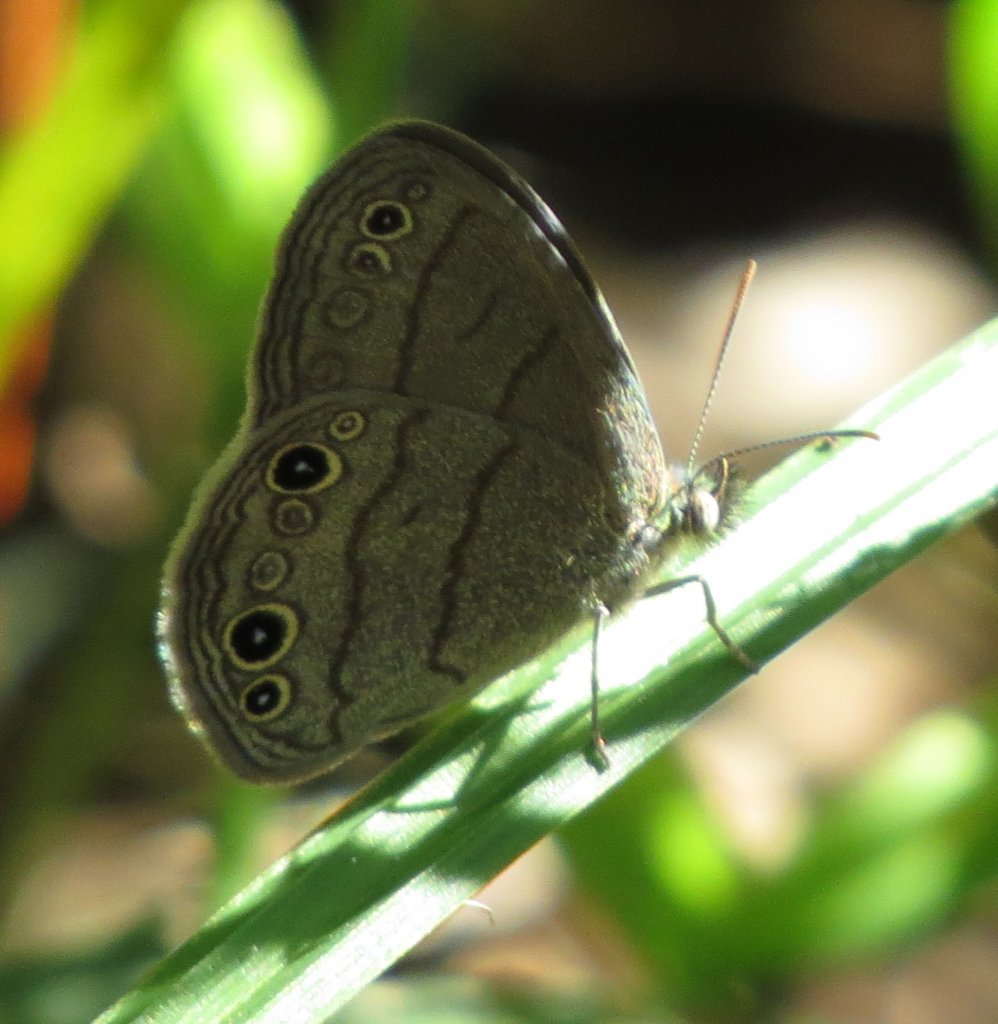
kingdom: Animalia
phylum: Arthropoda
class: Insecta
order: Lepidoptera
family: Nymphalidae
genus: Hermeuptychia
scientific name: Hermeuptychia hermes
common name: Carolina Satyr
